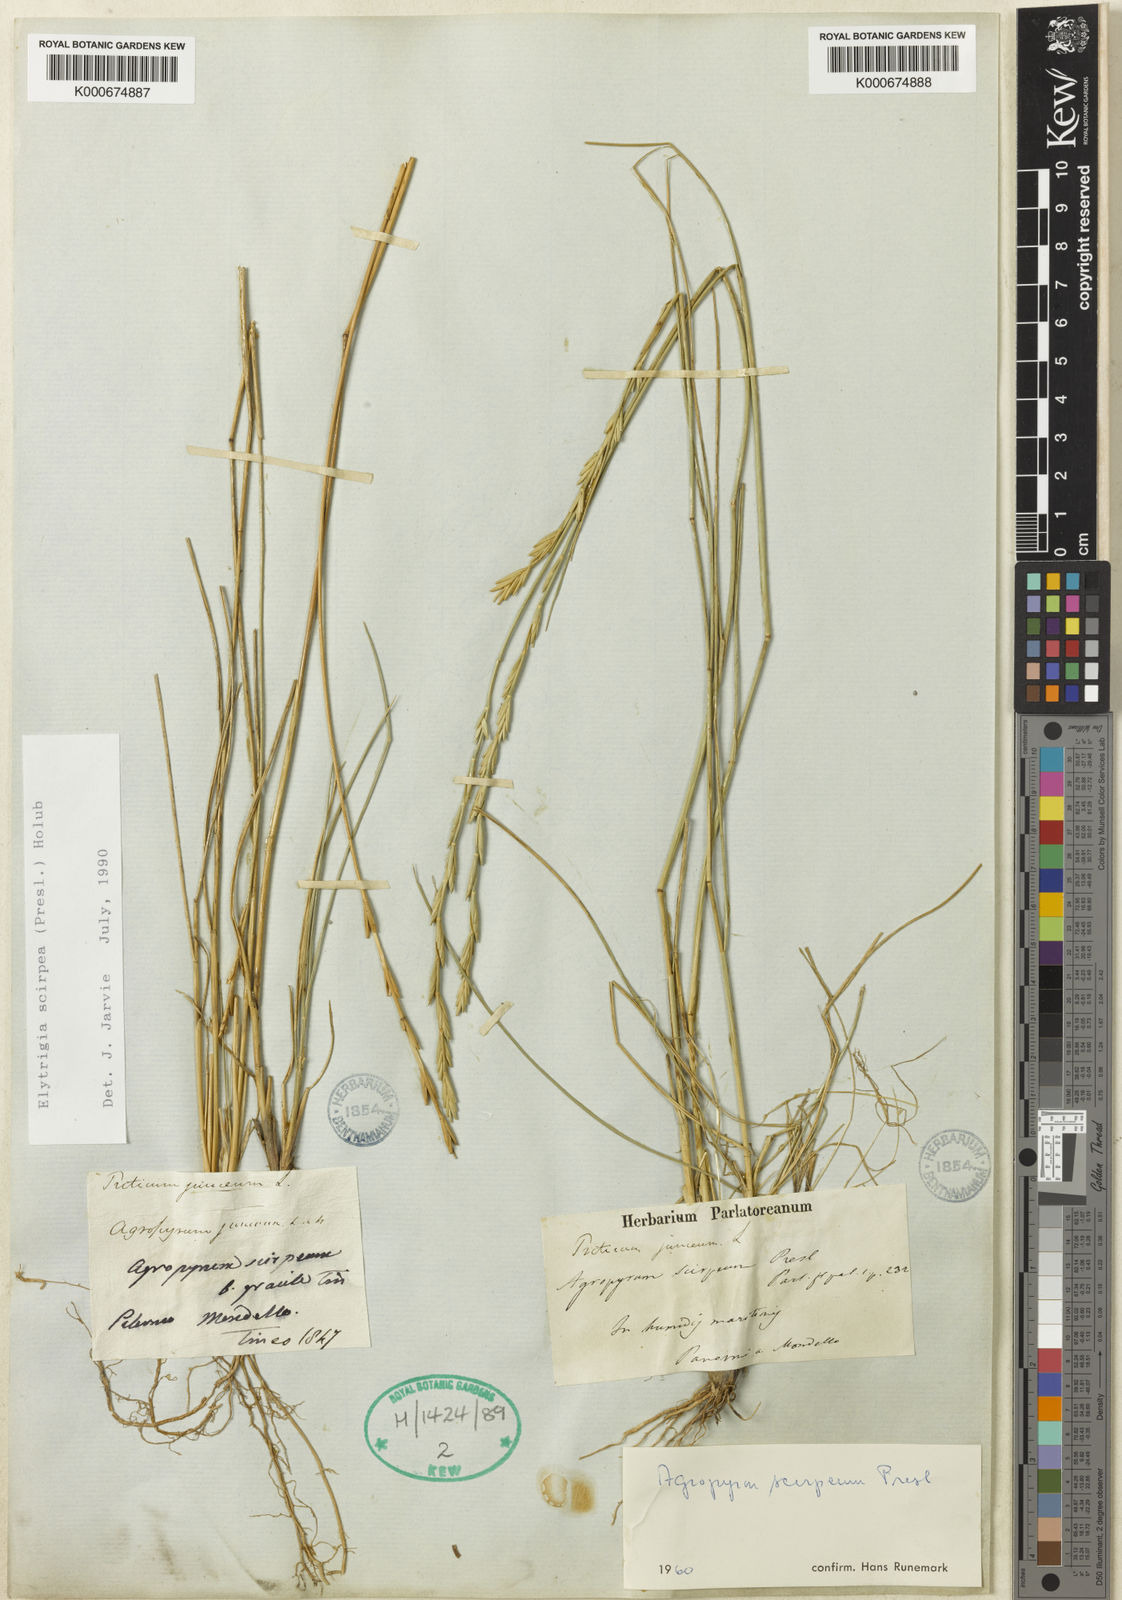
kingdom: Plantae
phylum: Tracheophyta
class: Liliopsida
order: Poales
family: Poaceae
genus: Thinopyrum
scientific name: Thinopyrum flaccidifolium
